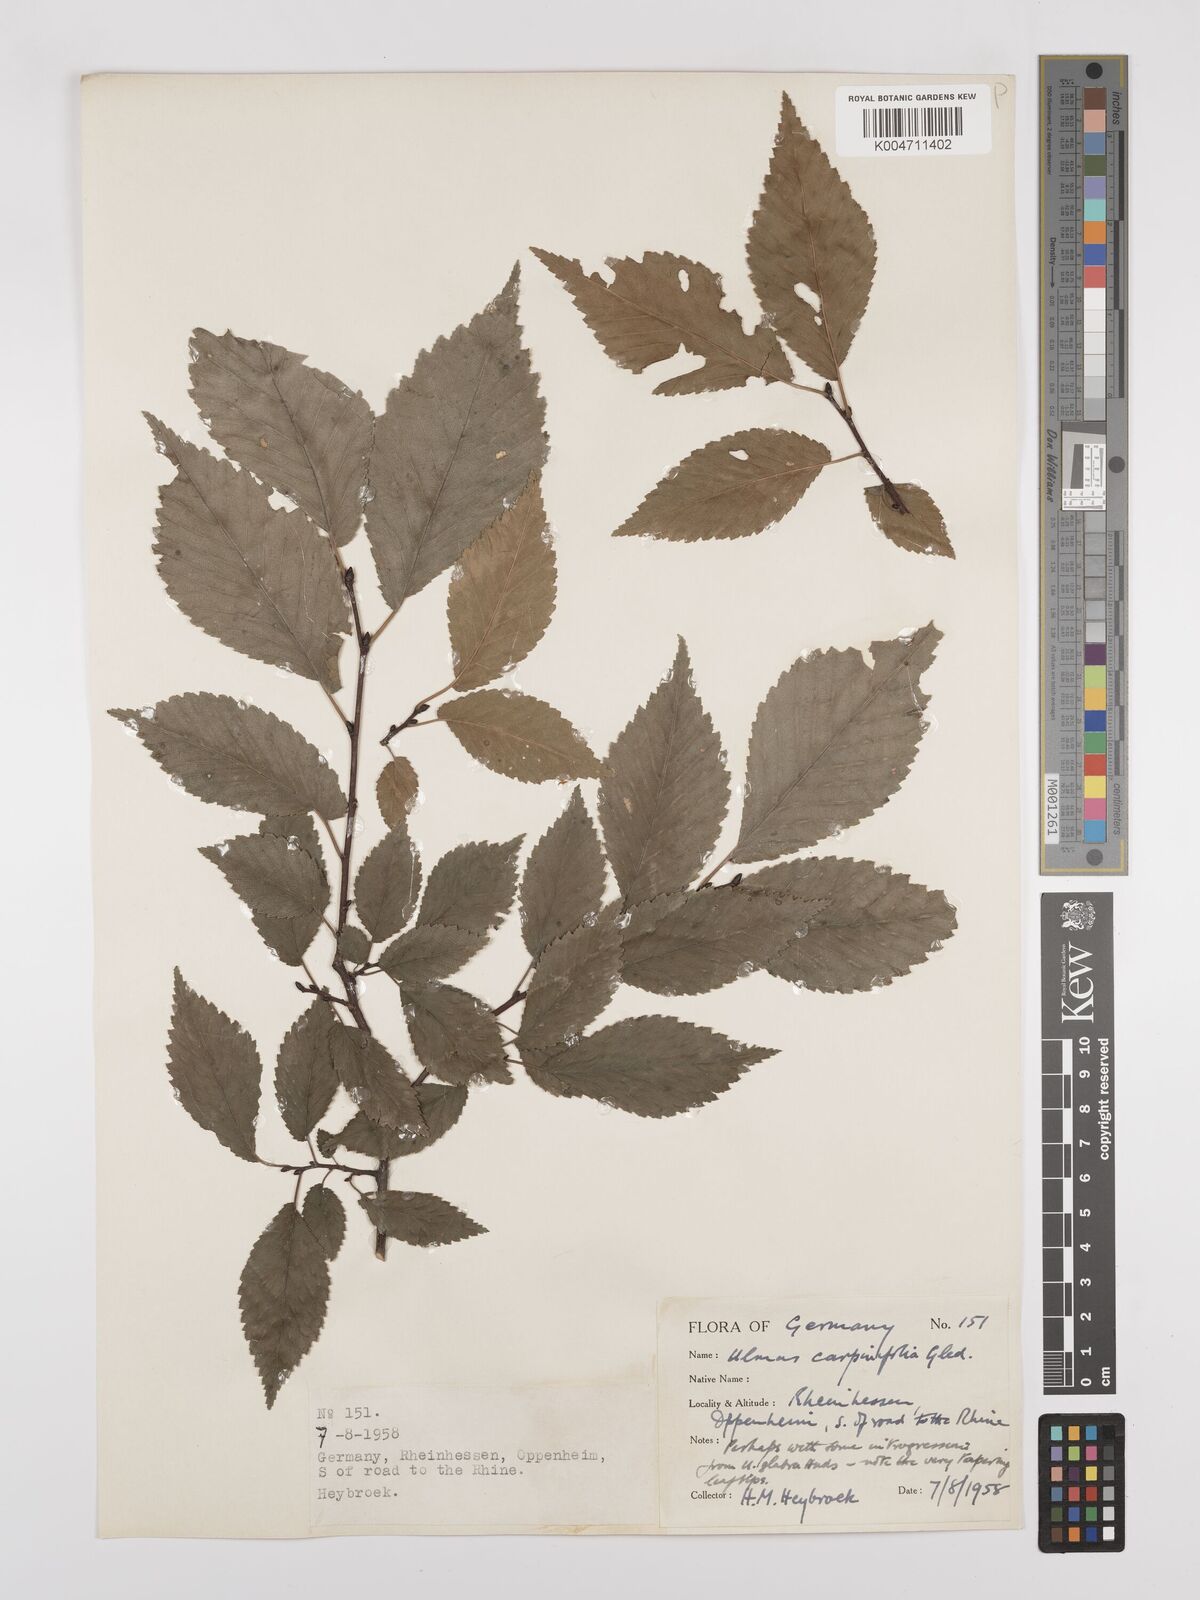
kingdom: Plantae
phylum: Tracheophyta
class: Magnoliopsida
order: Rosales
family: Ulmaceae
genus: Ulmus
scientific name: Ulmus minor
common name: Small-leaved elm
